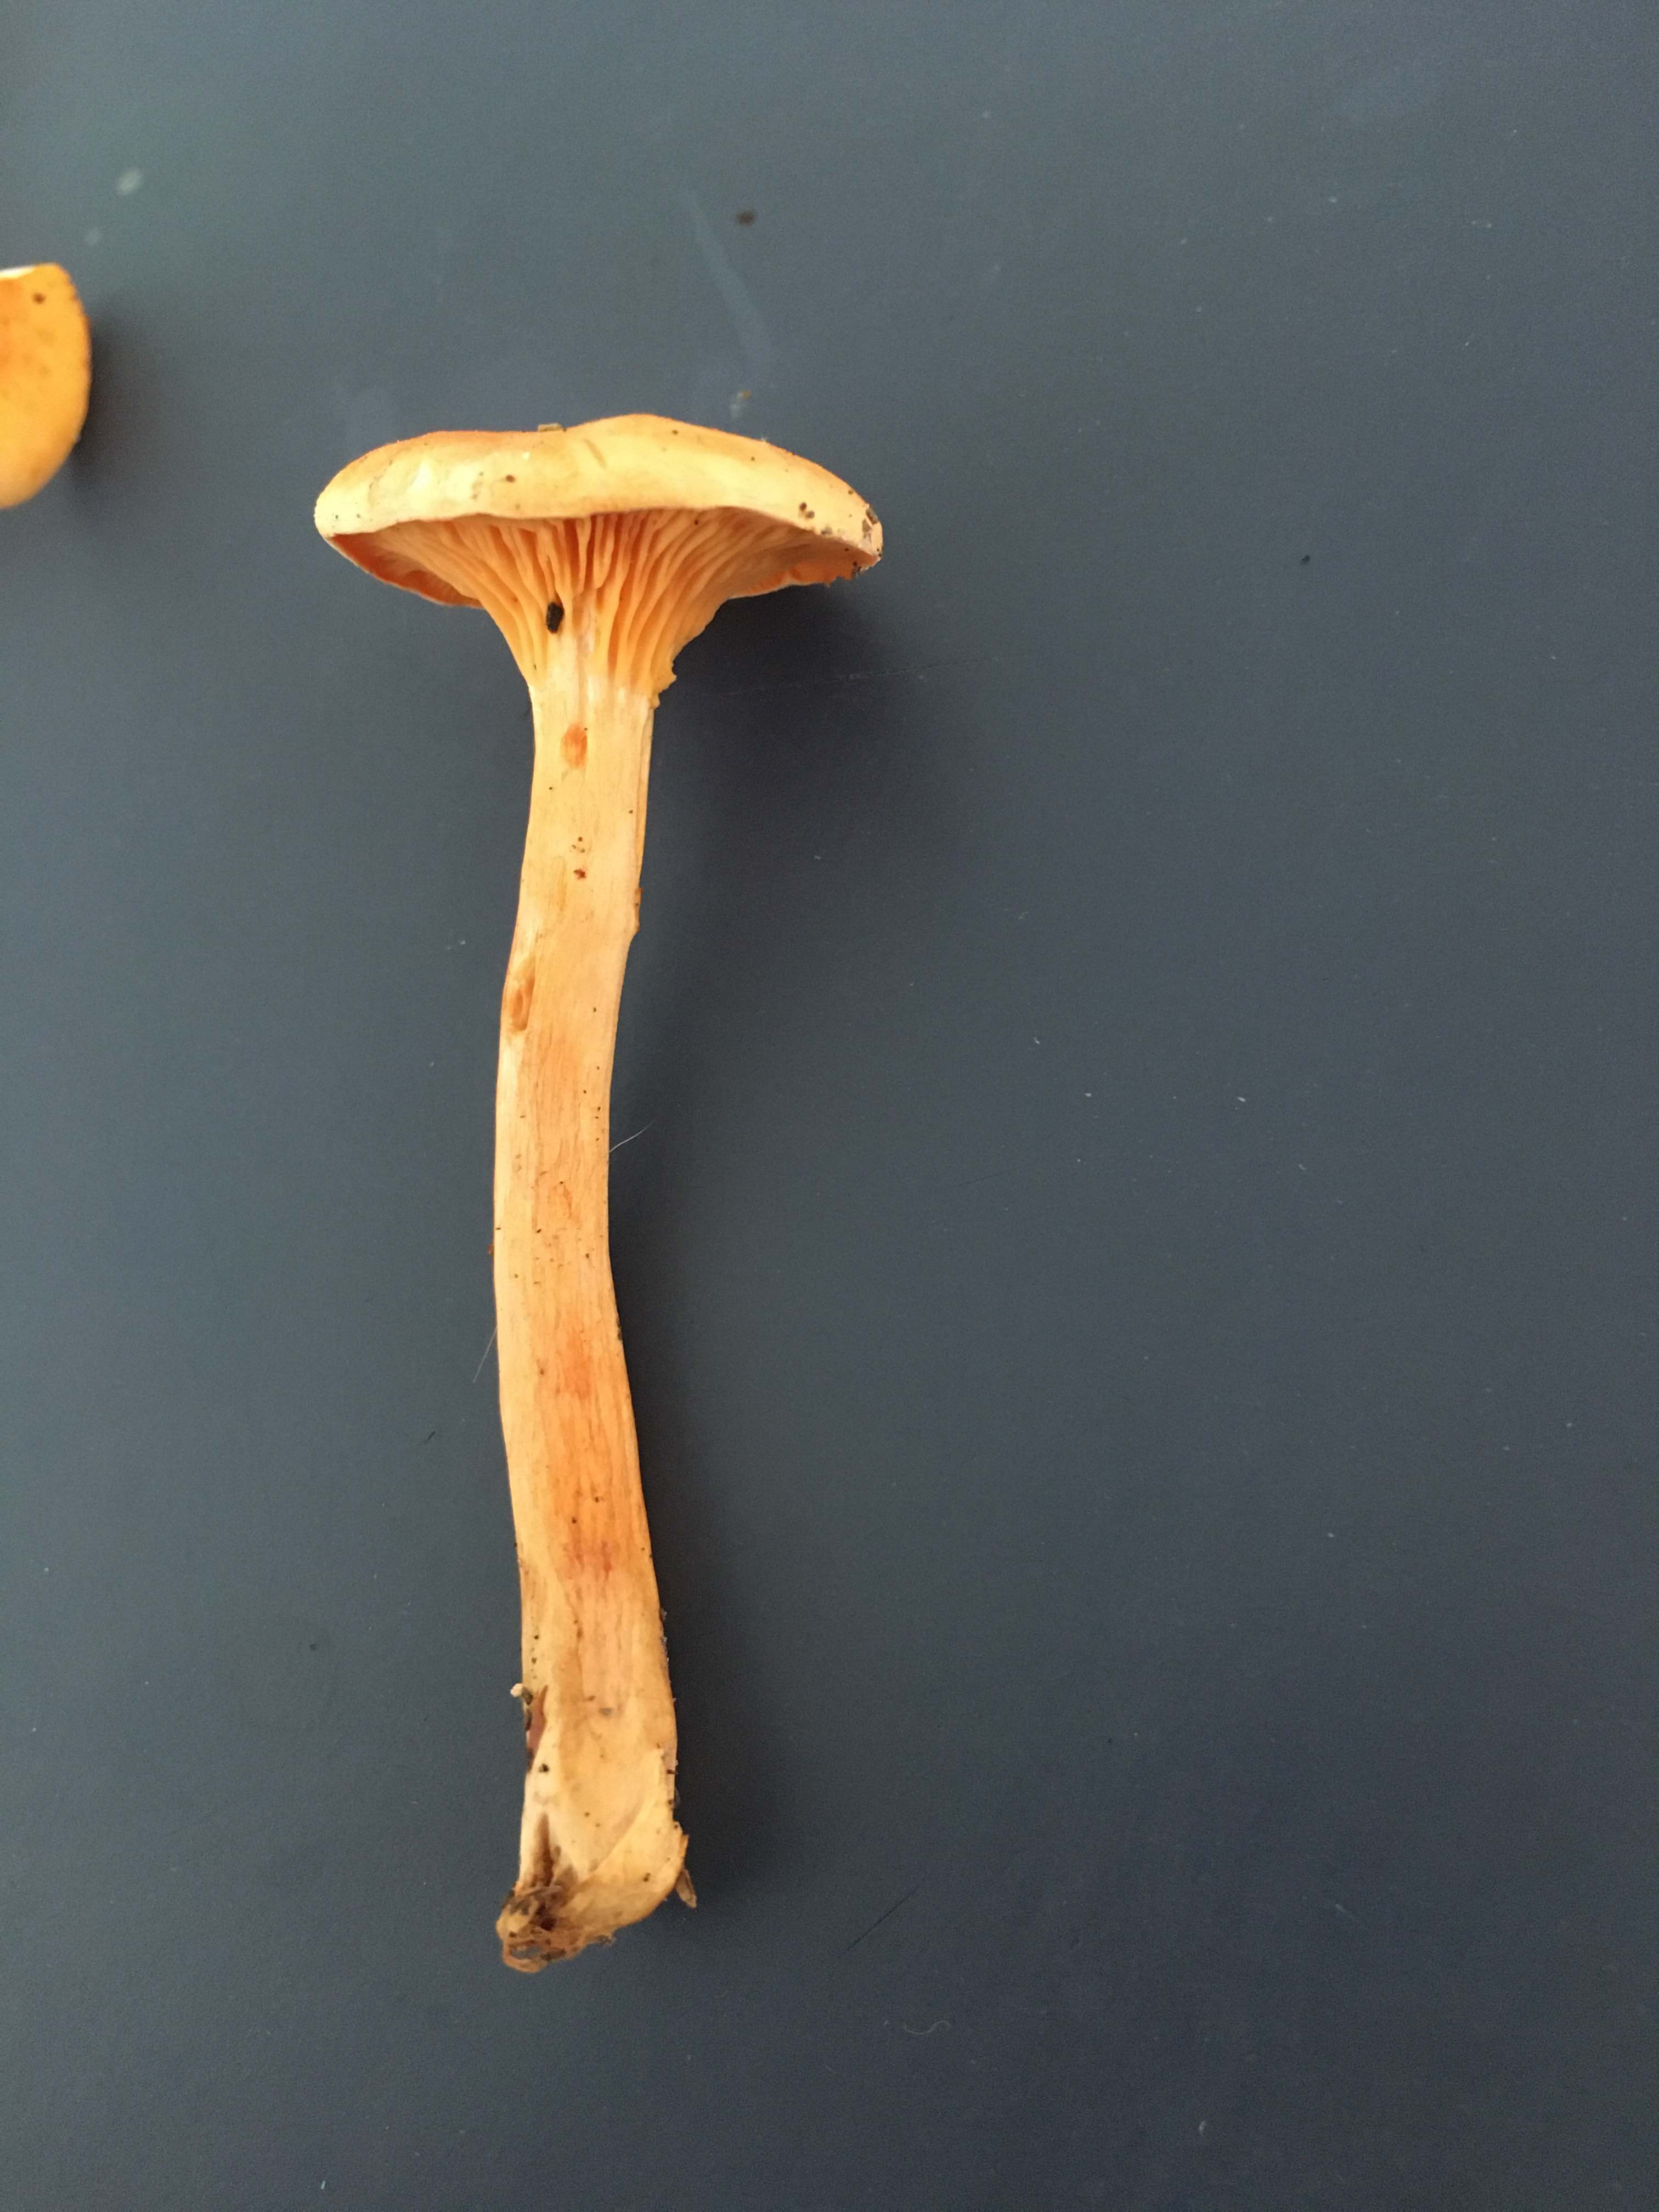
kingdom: Fungi
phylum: Basidiomycota
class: Agaricomycetes
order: Boletales
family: Hygrophoropsidaceae
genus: Hygrophoropsis
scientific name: Hygrophoropsis aurantiaca
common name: almindelig orangekantarel
